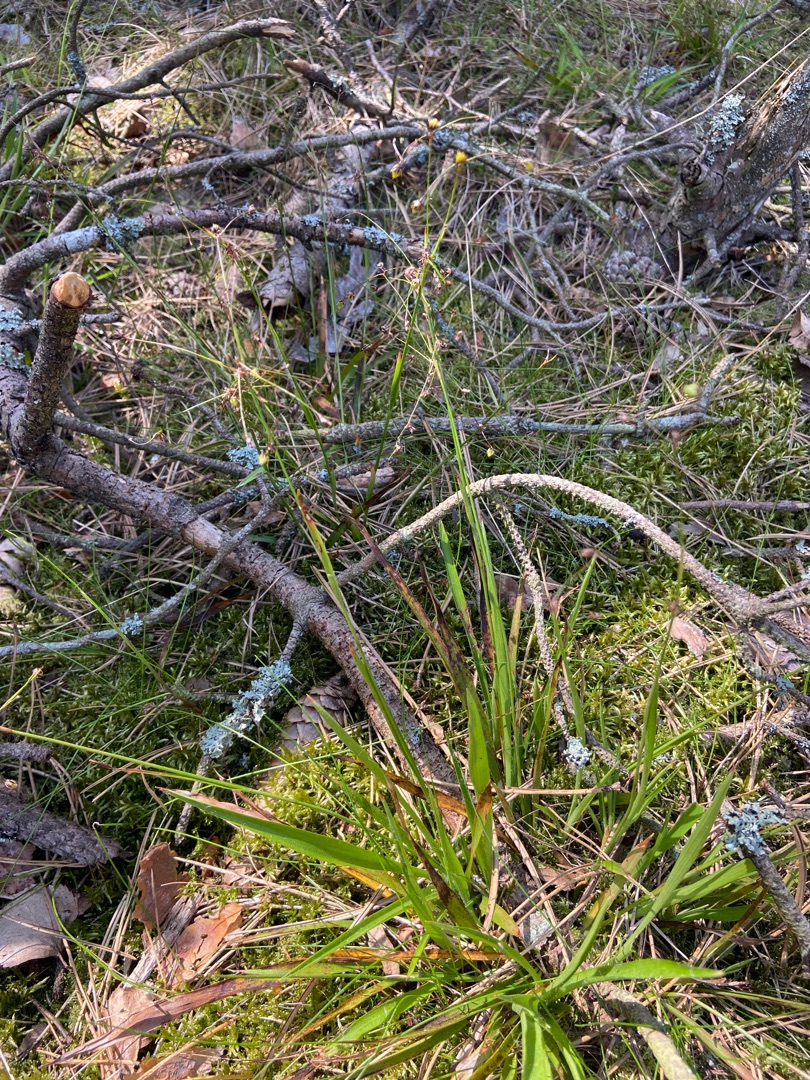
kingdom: Plantae
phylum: Tracheophyta
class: Liliopsida
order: Poales
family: Juncaceae
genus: Luzula
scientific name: Luzula pilosa
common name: Håret frytle
